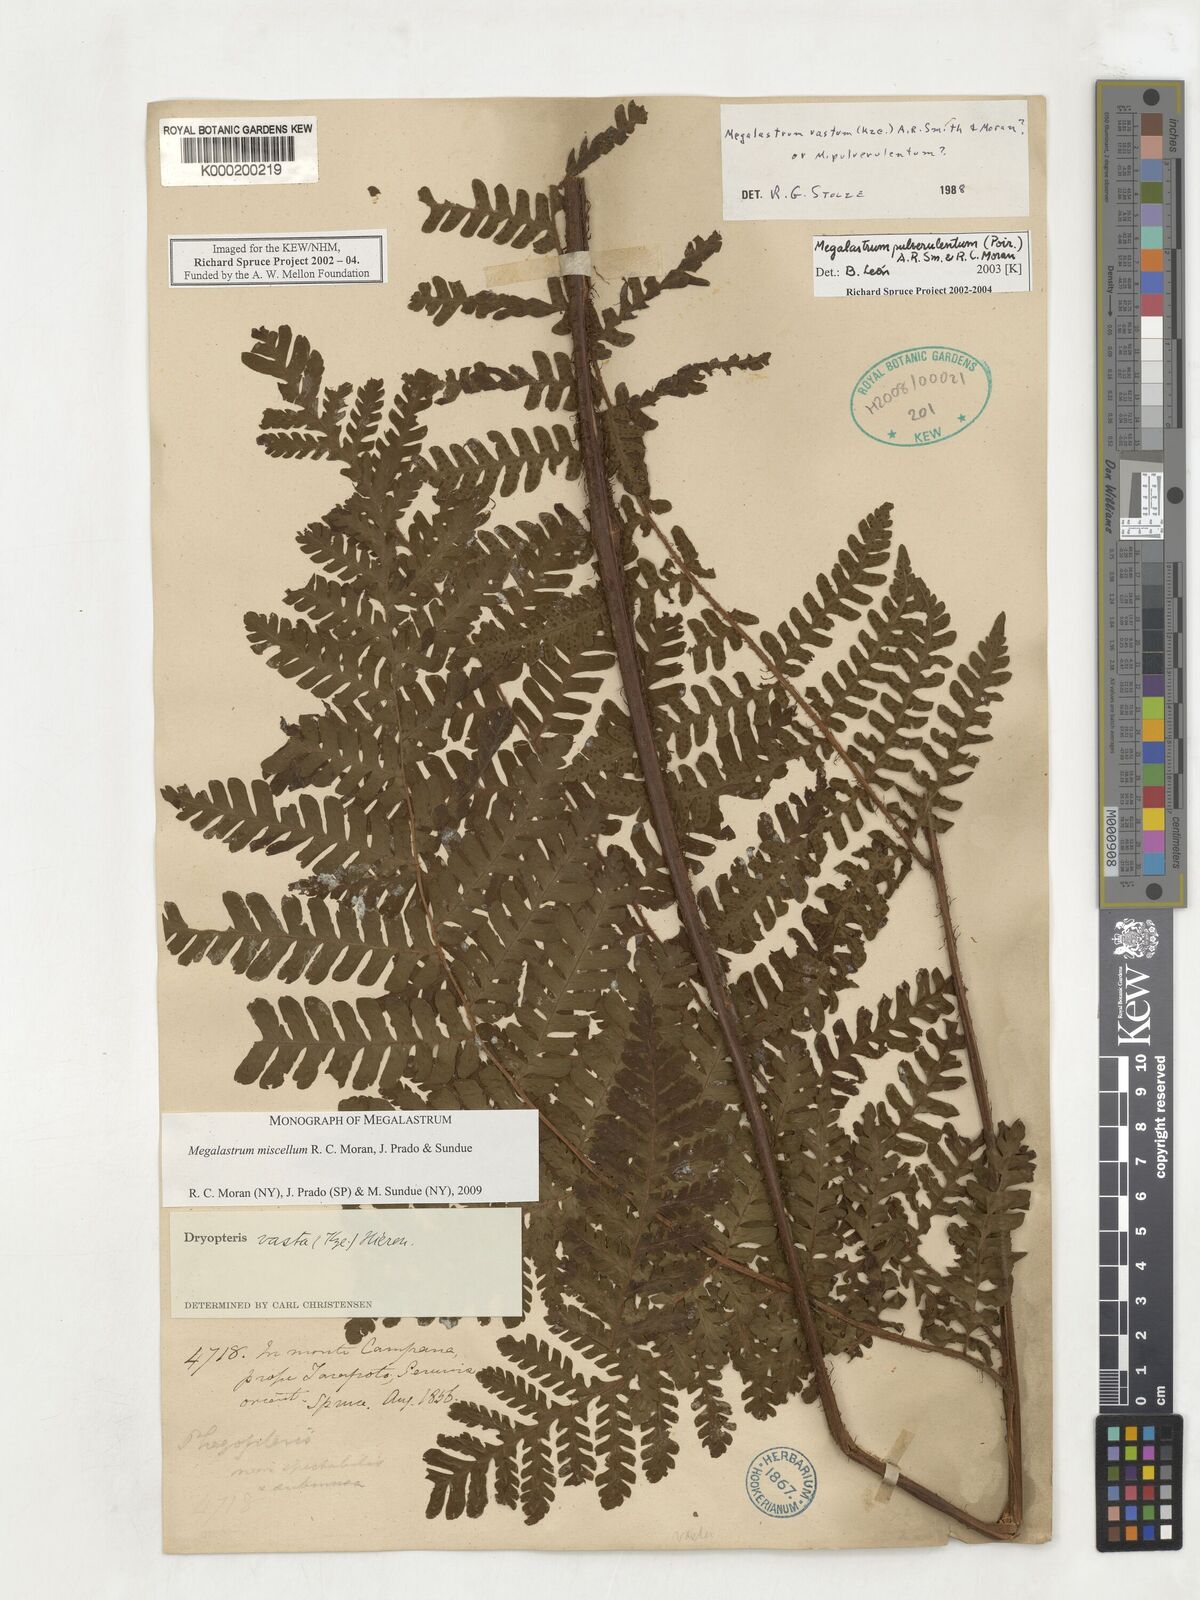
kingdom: Plantae
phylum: Tracheophyta
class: Polypodiopsida
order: Polypodiales
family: Dryopteridaceae
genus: Megalastrum
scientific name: Megalastrum miscellum
